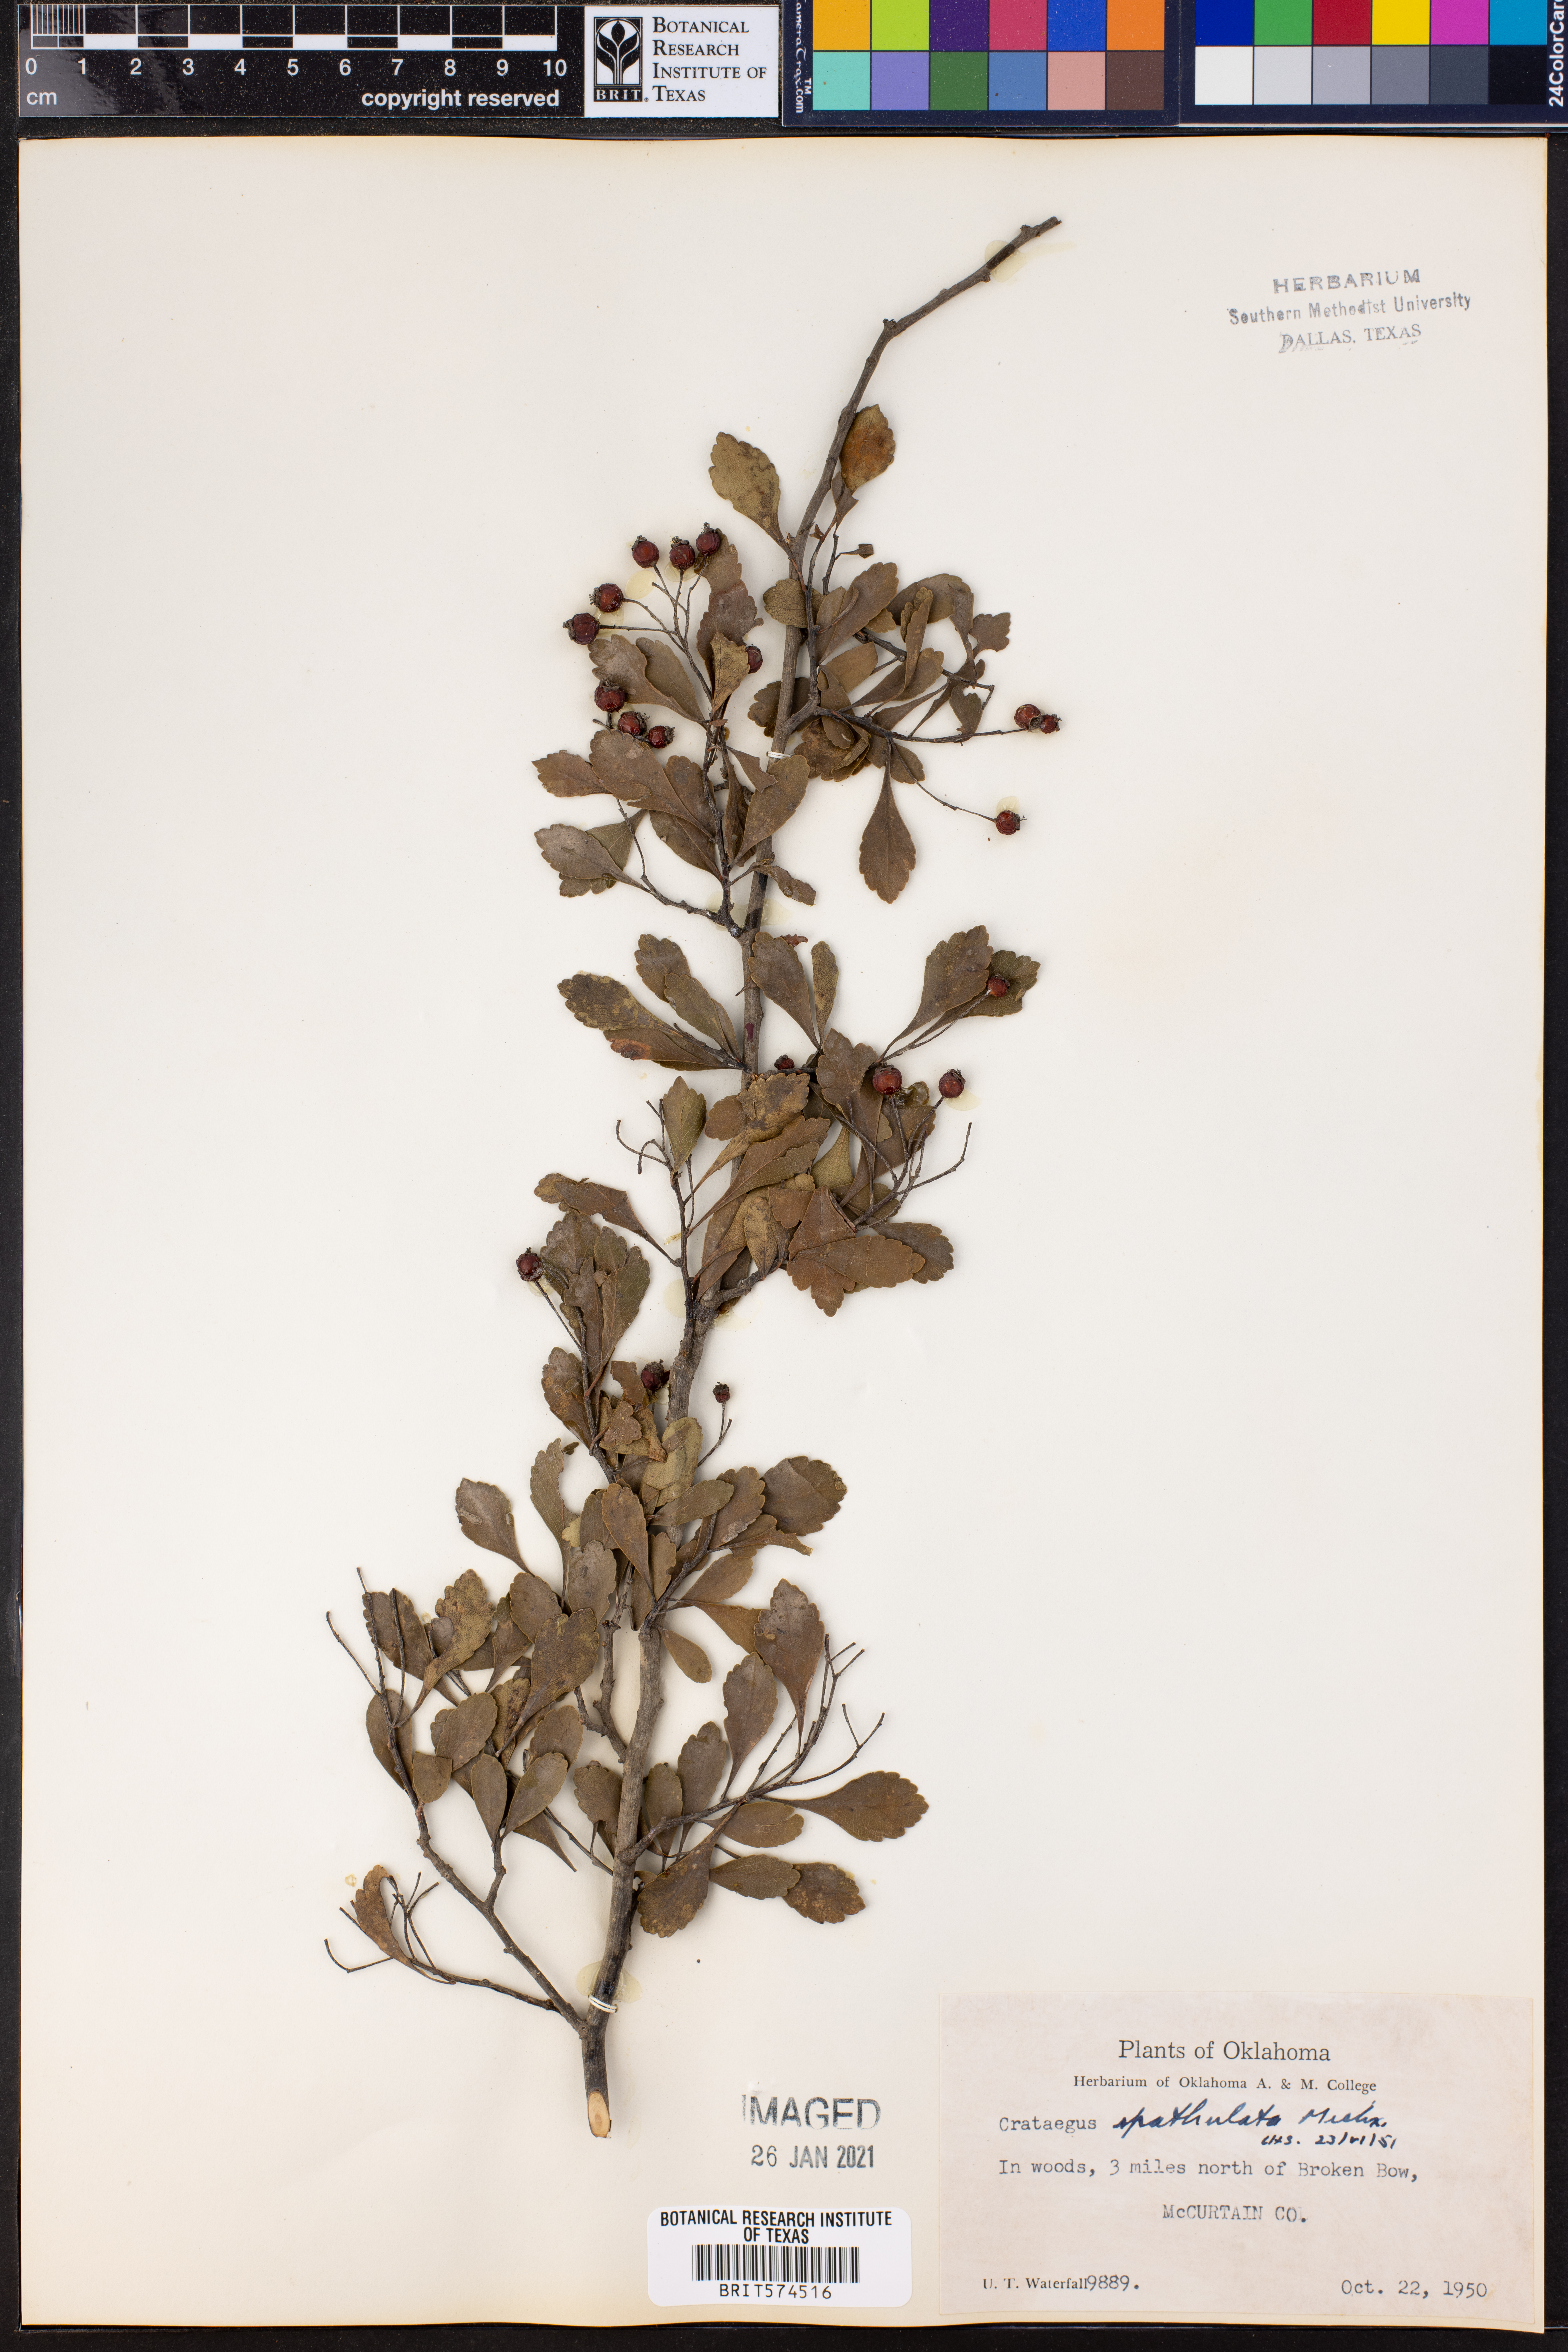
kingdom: Plantae
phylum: Tracheophyta
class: Magnoliopsida
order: Rosales
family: Rosaceae
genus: Crataegus
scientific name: Crataegus spathulata
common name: Littlehip hawthorn
